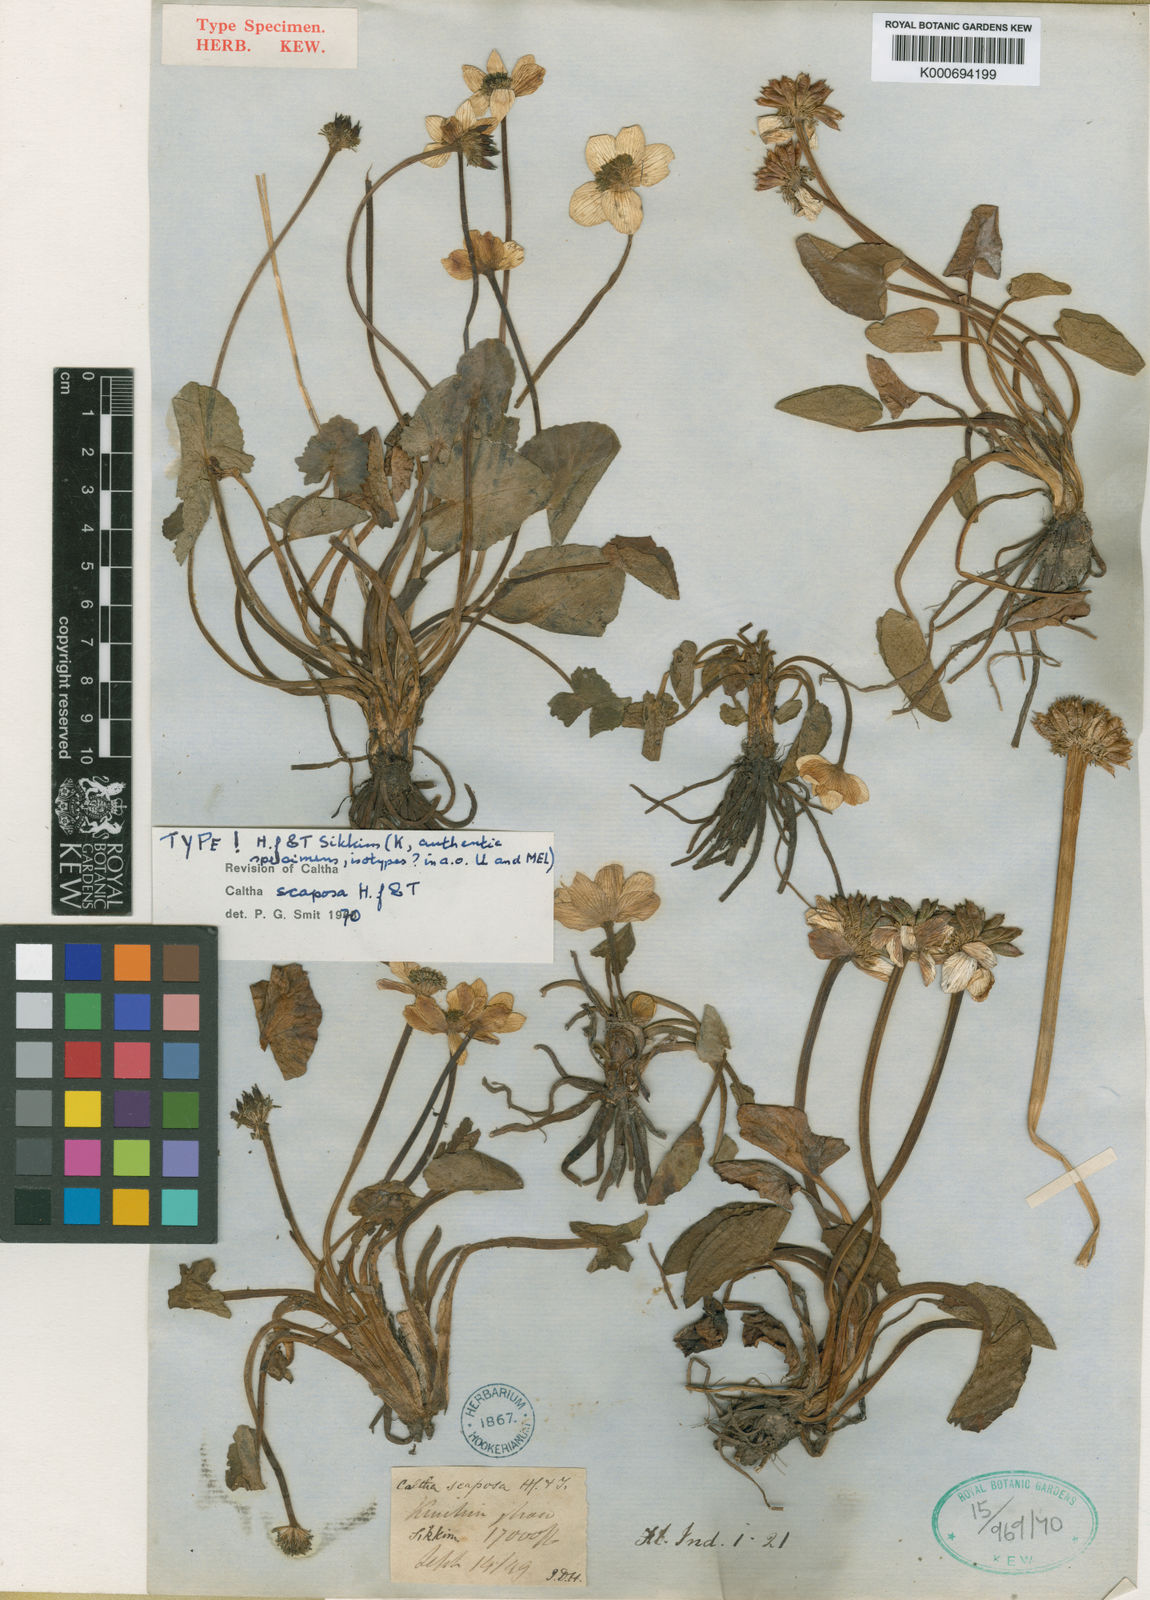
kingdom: Plantae
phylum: Tracheophyta
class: Magnoliopsida
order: Ranunculales
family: Ranunculaceae
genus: Caltha
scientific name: Caltha scaposa
